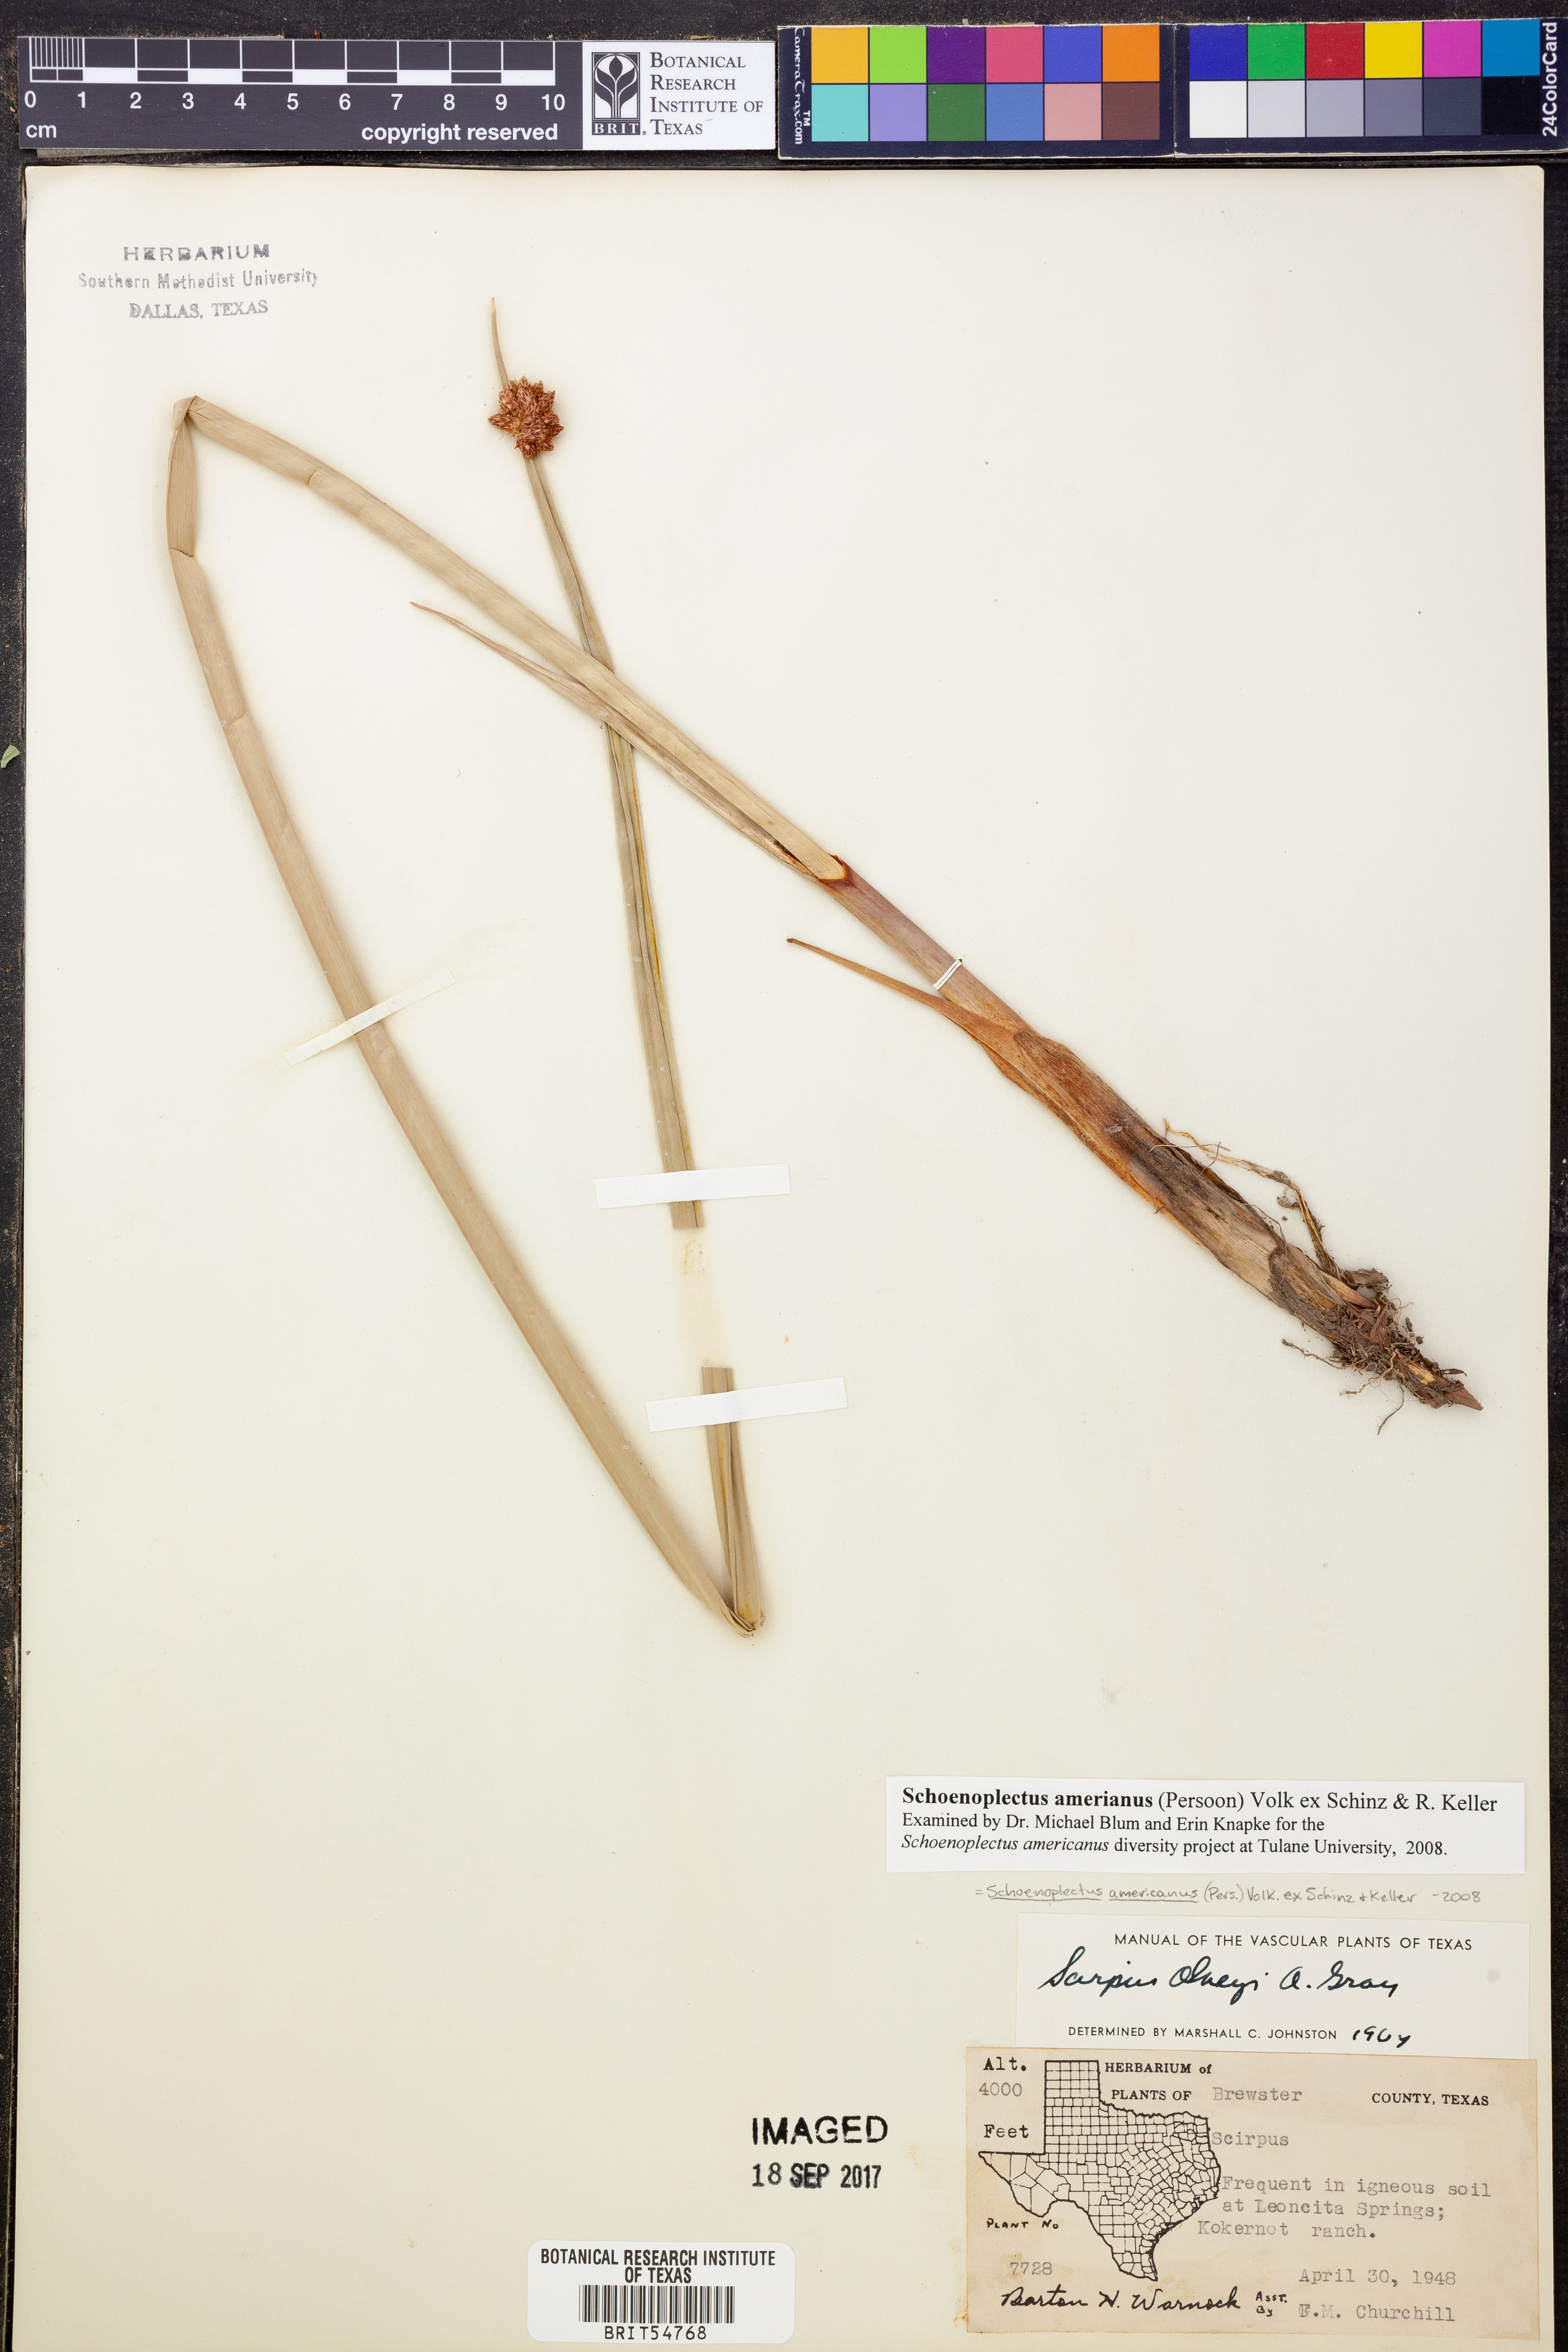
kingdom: Plantae
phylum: Tracheophyta
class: Liliopsida
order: Poales
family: Cyperaceae
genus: Schoenoplectus
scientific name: Schoenoplectus americanus
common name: American three-square bulrush
